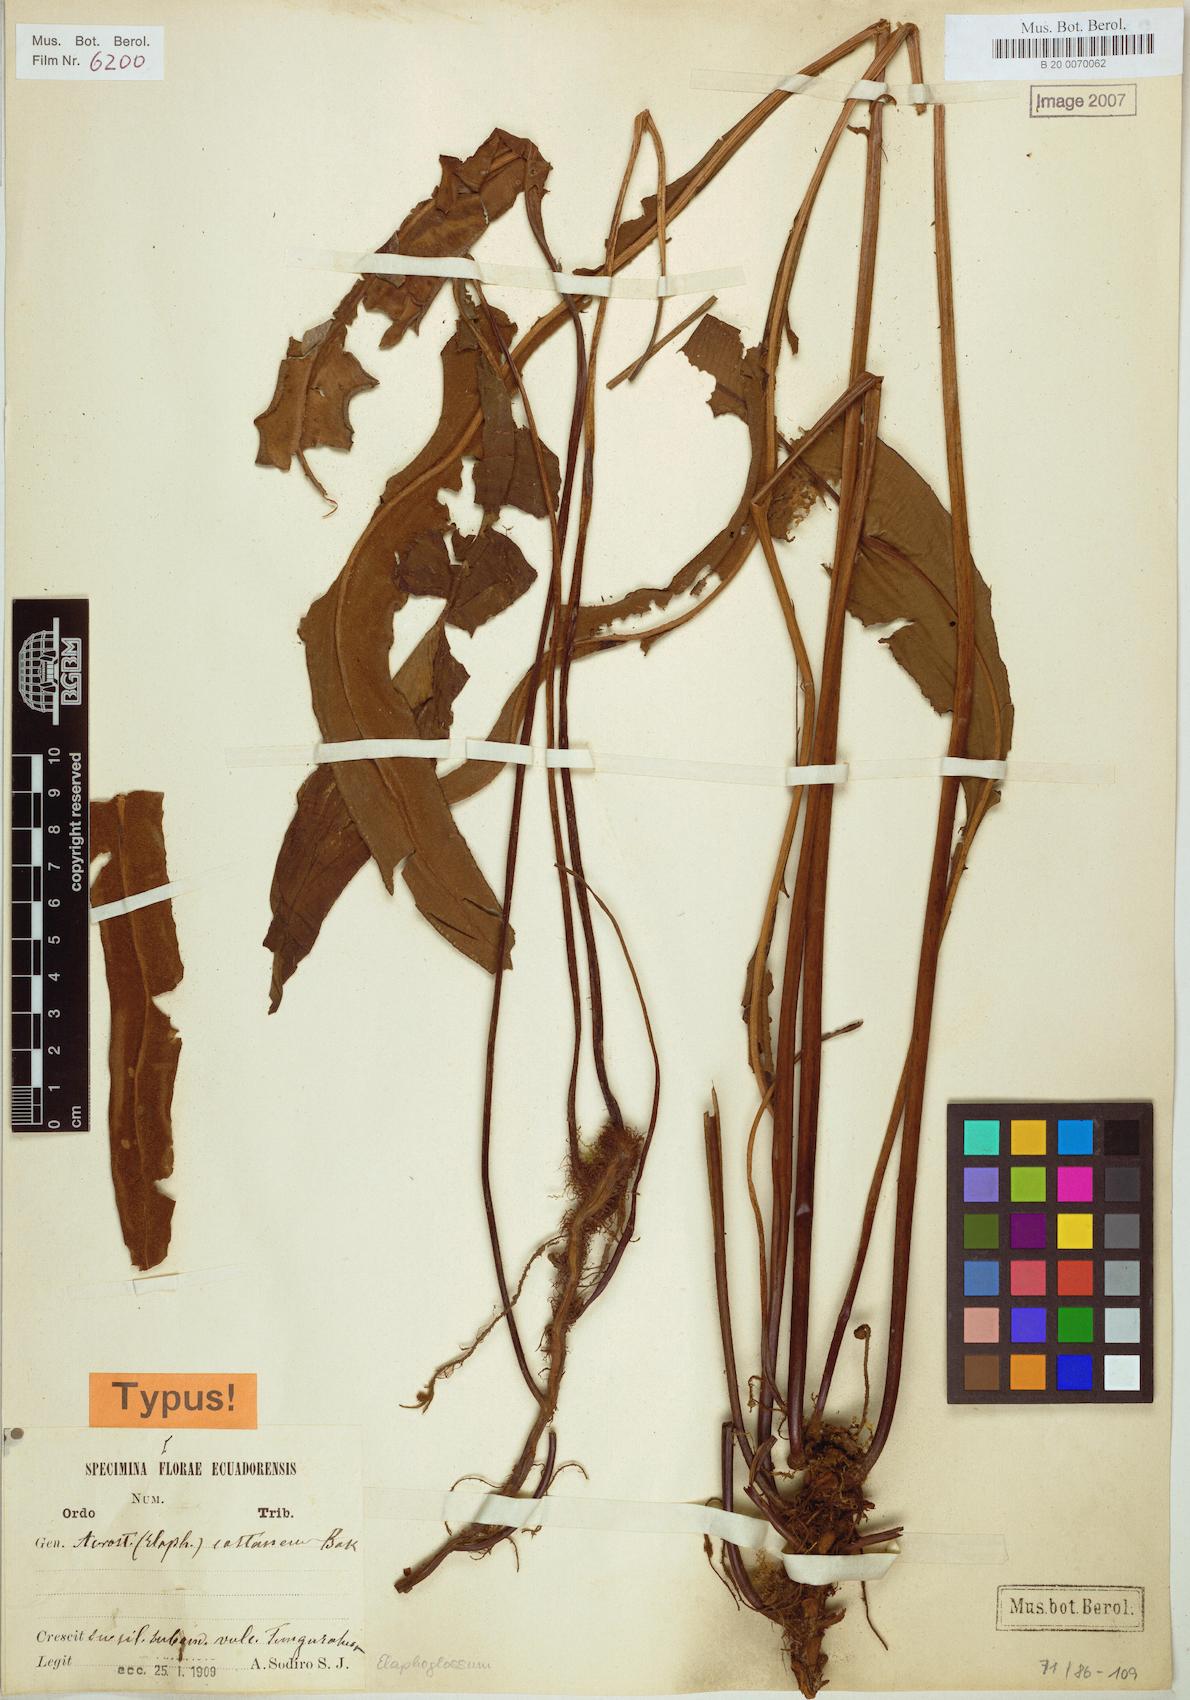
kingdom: Plantae
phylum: Tracheophyta
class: Polypodiopsida
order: Polypodiales
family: Dryopteridaceae
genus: Elaphoglossum
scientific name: Elaphoglossum castaneum
